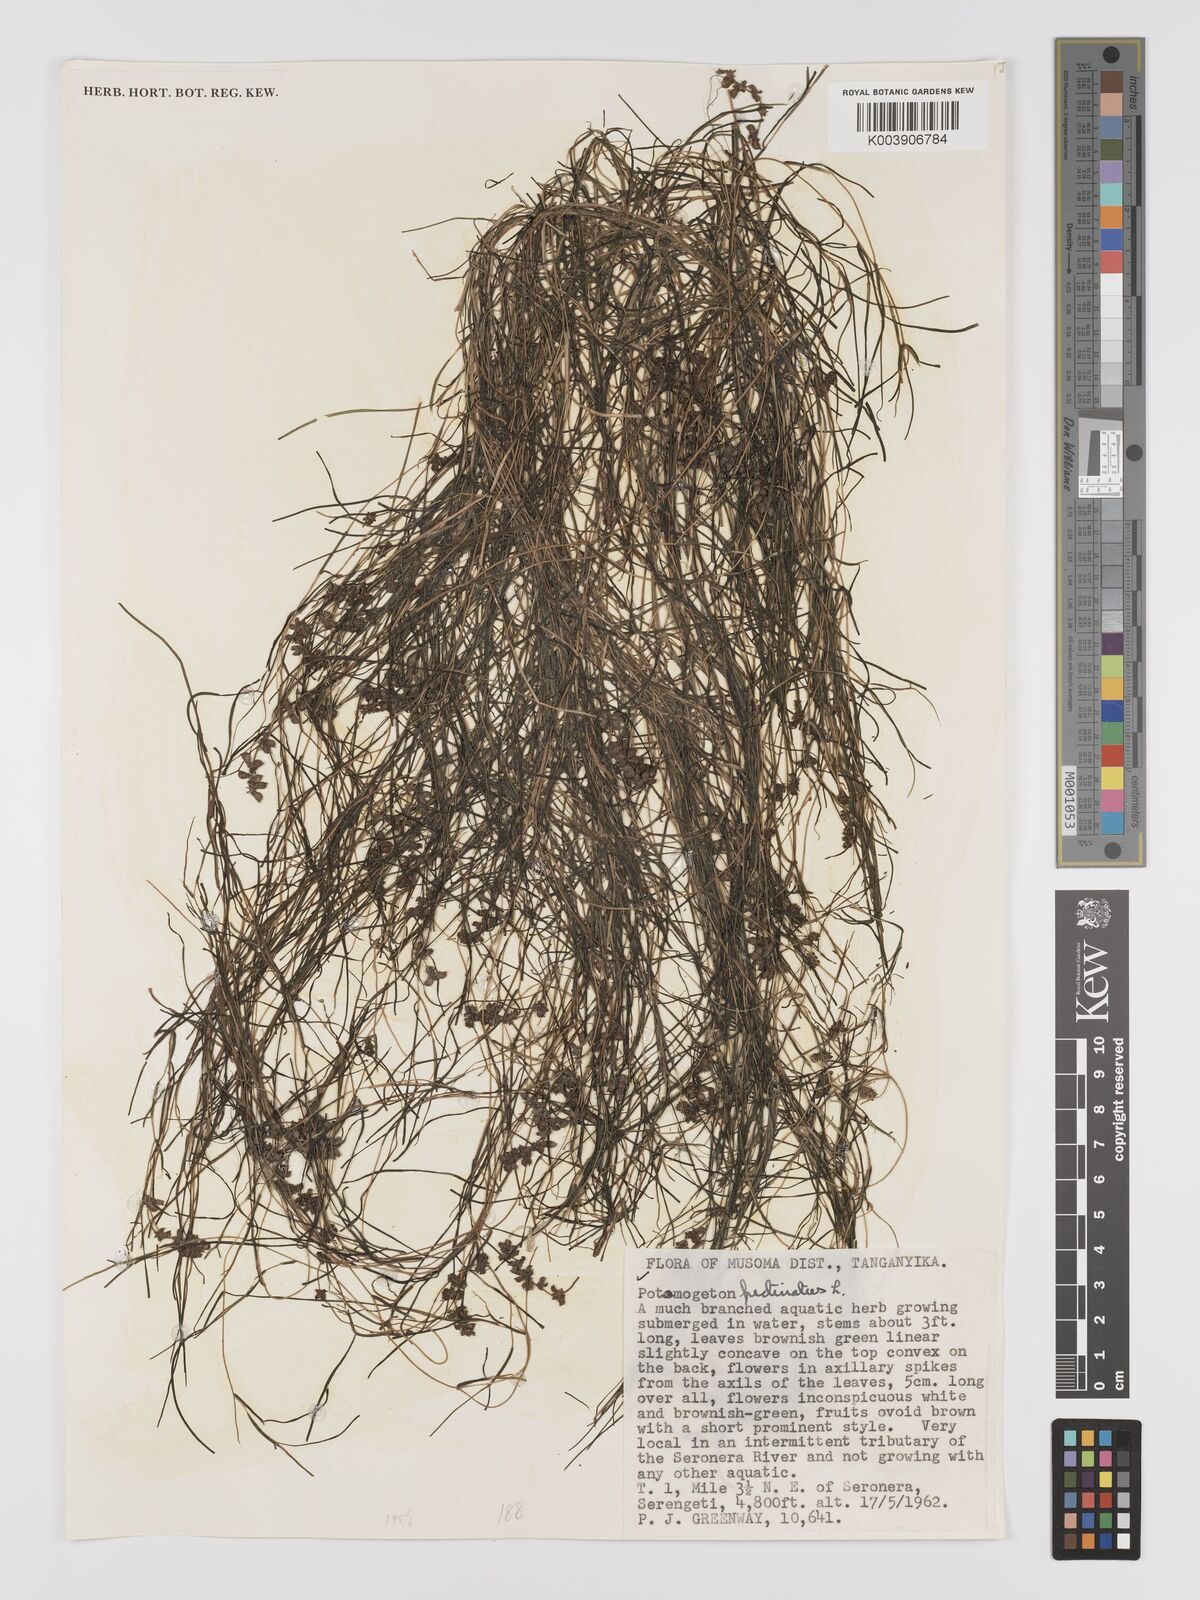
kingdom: Plantae
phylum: Tracheophyta
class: Liliopsida
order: Alismatales
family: Potamogetonaceae
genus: Stuckenia
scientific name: Stuckenia pectinata
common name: Sago pondweed
